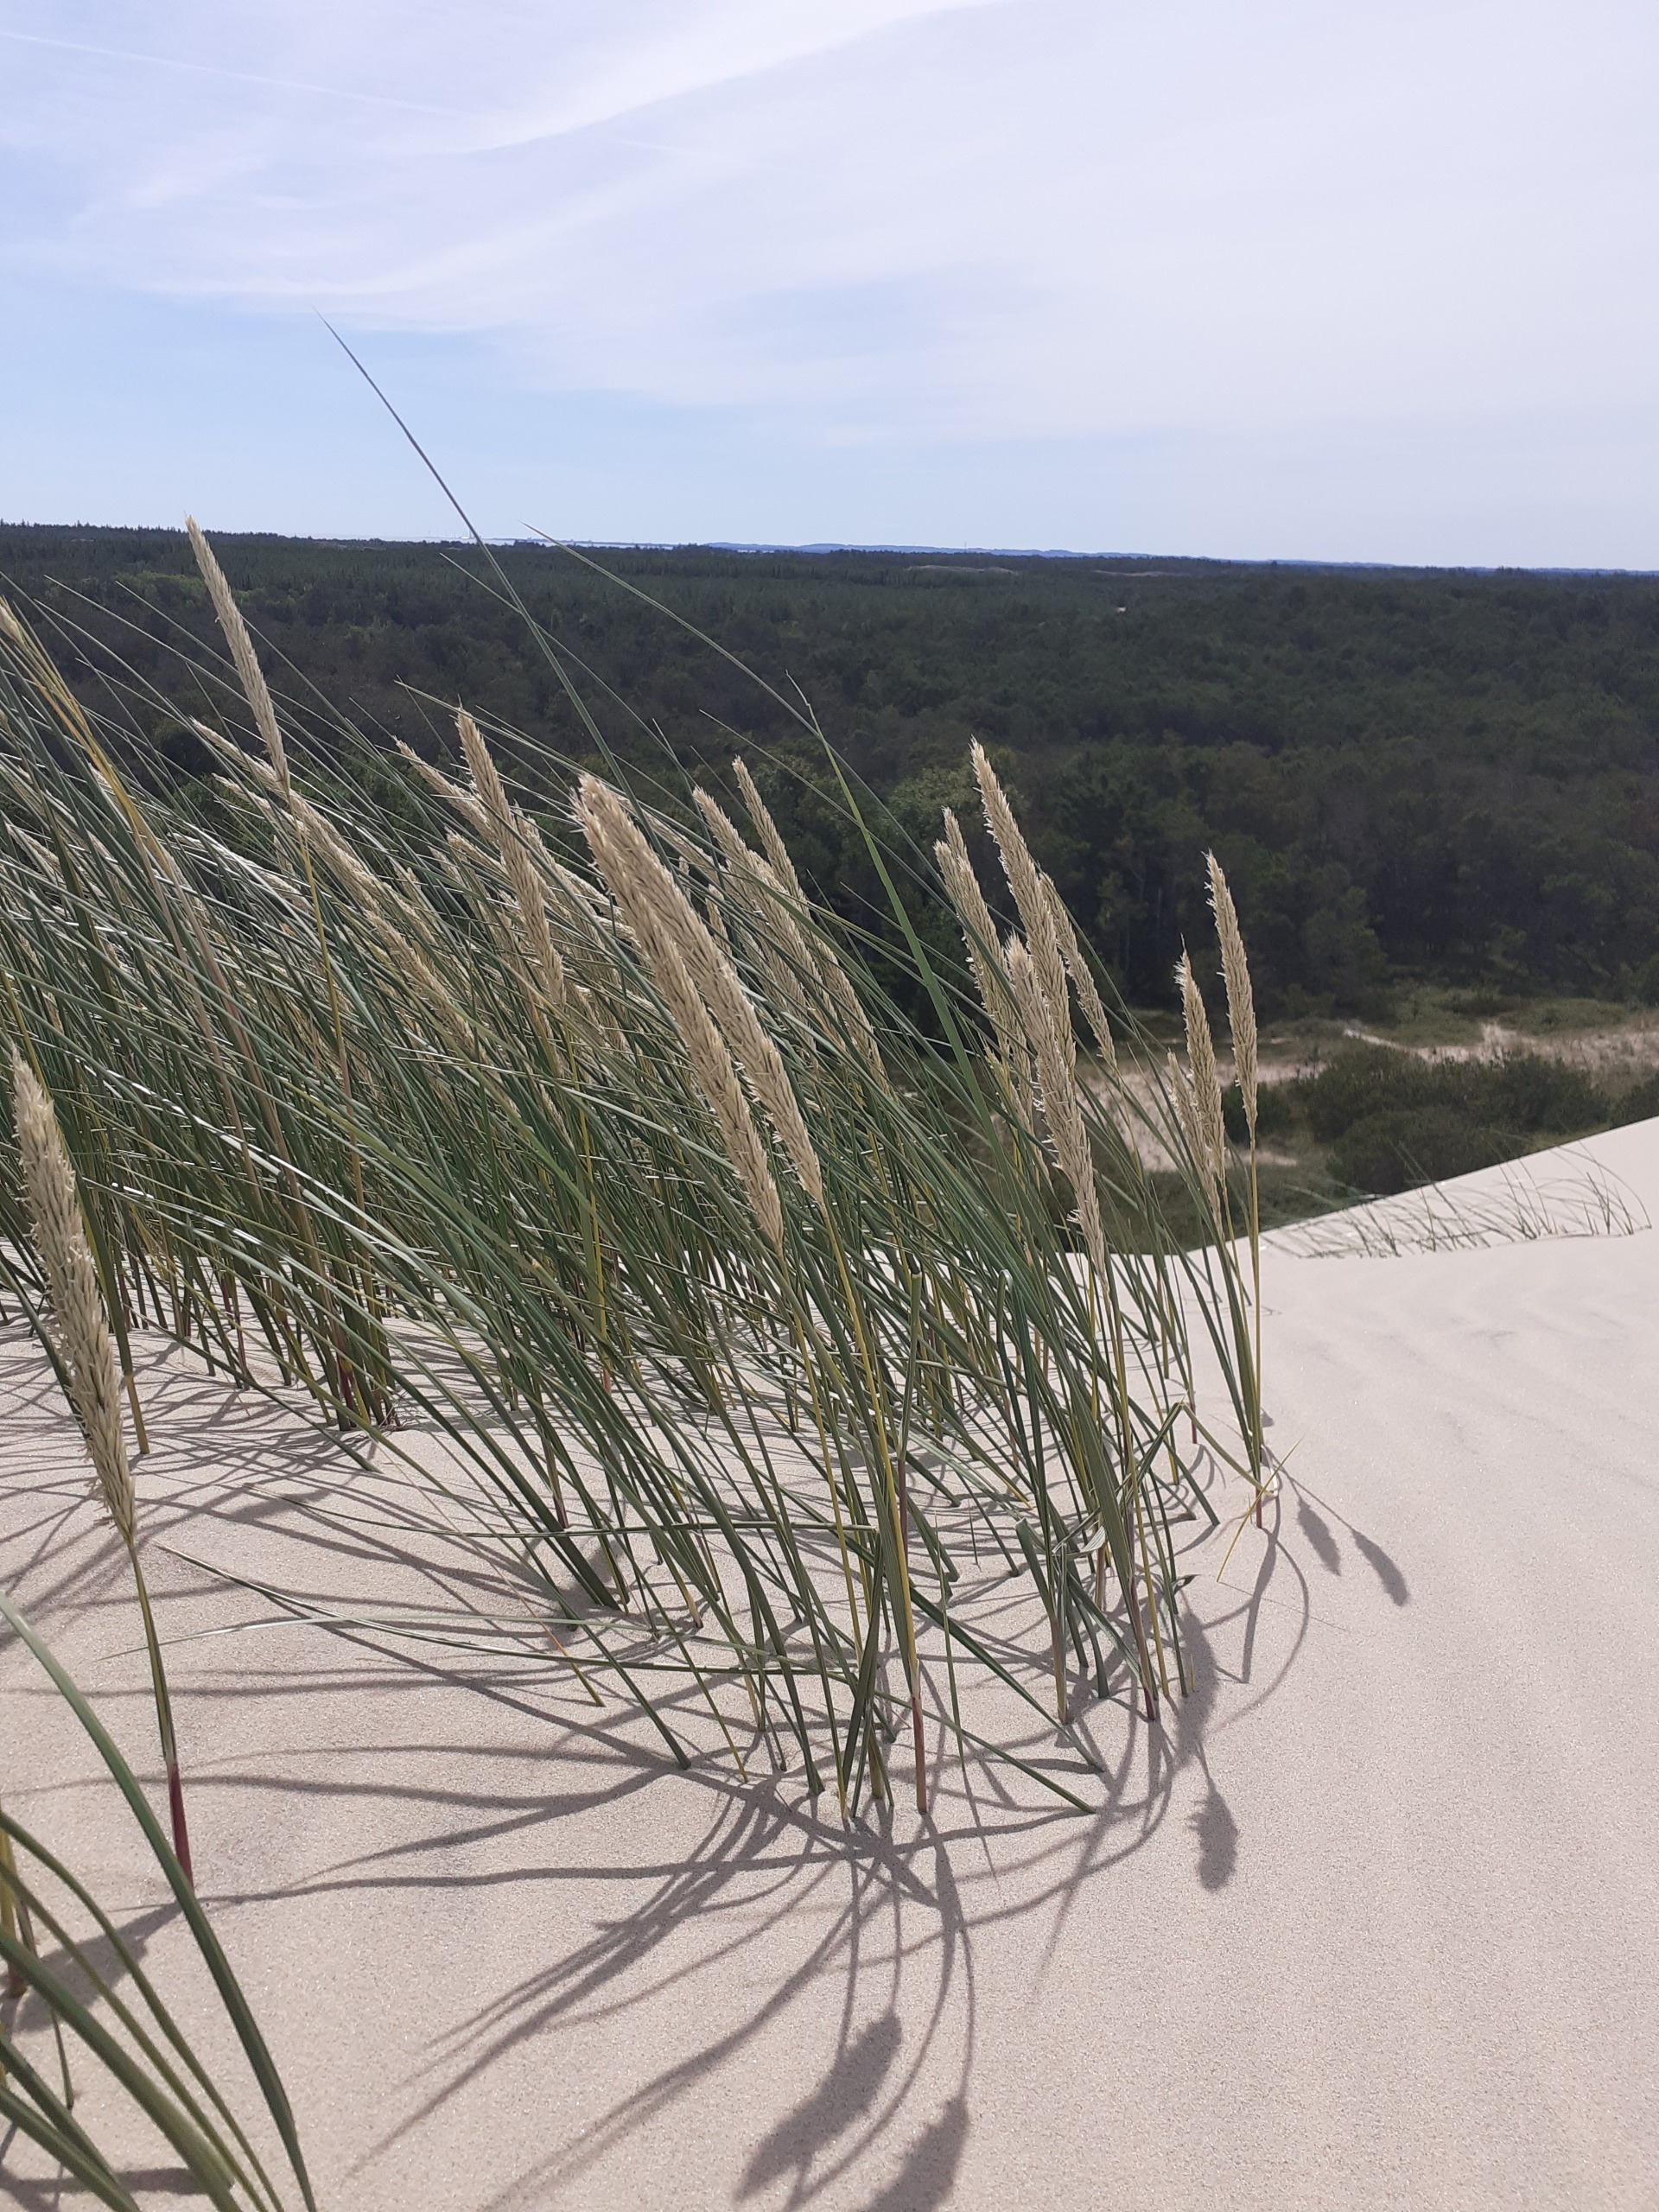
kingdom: Plantae
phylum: Tracheophyta
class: Liliopsida
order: Poales
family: Poaceae
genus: Calamagrostis
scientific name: Calamagrostis arenaria
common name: Sand-hjælme
